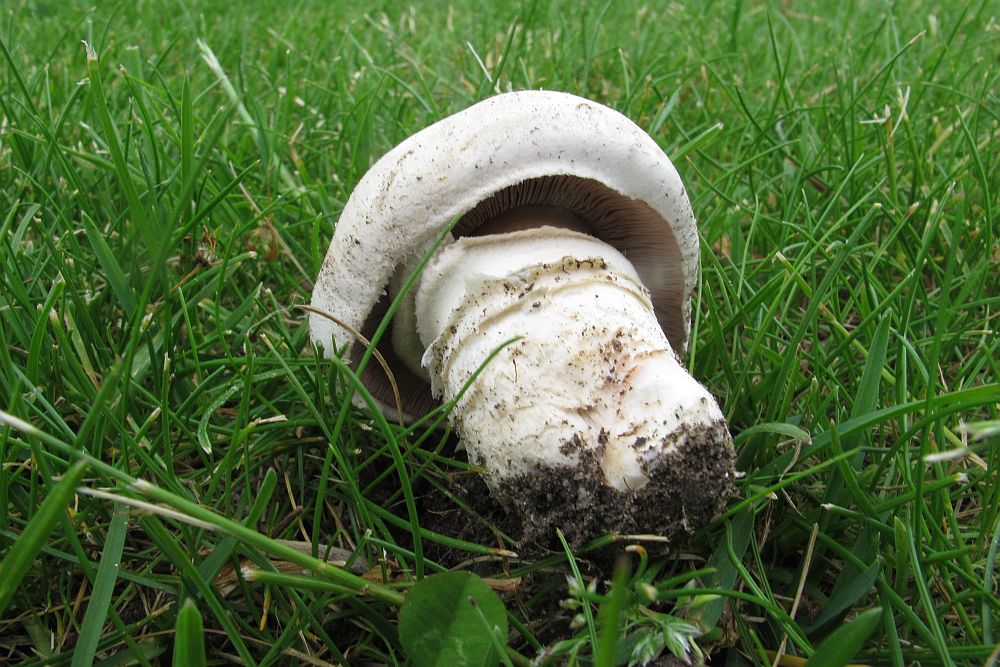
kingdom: Fungi
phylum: Basidiomycota
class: Agaricomycetes
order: Agaricales
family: Agaricaceae
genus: Agaricus
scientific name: Agaricus bitorquis
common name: vej-champignon
